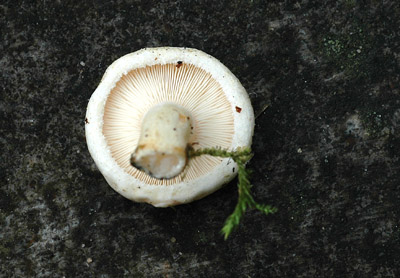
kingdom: Fungi
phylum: Basidiomycota
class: Agaricomycetes
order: Russulales
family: Russulaceae
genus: Lactarius
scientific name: Lactarius scoticus
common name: tørve-mælkehat
